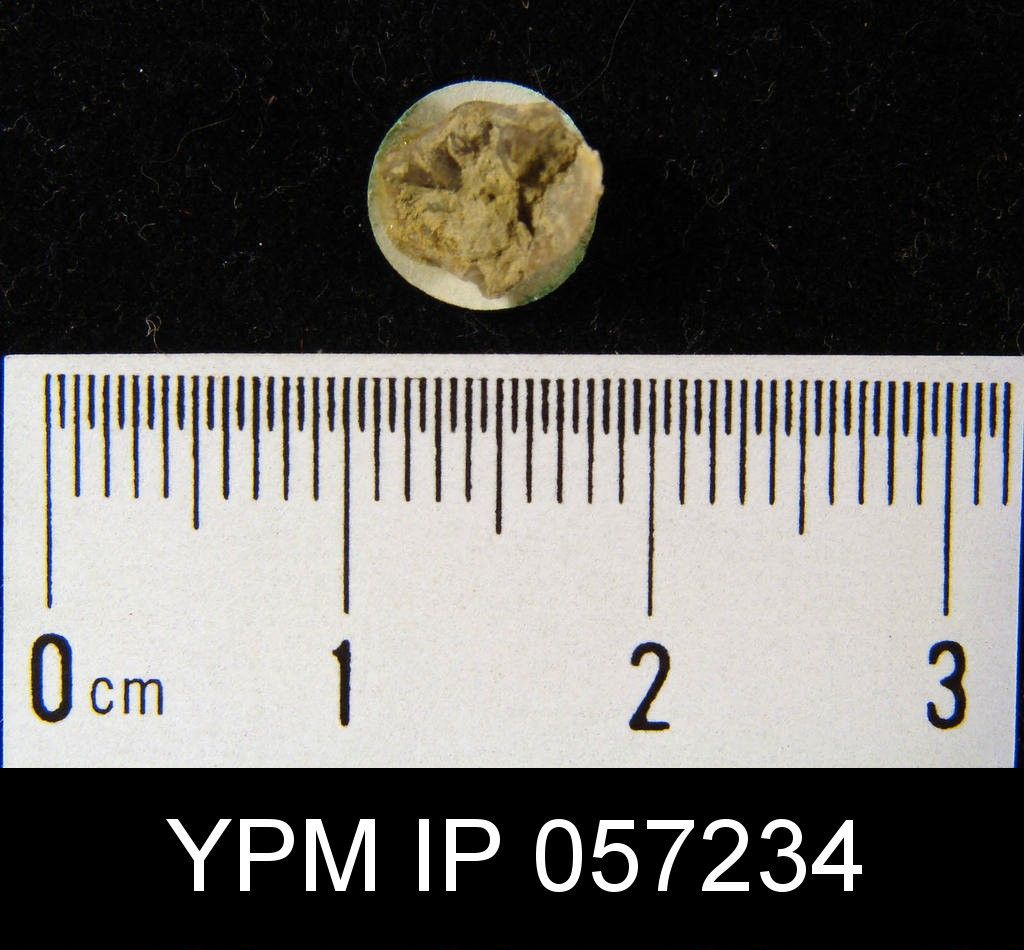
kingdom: Animalia
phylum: Brachiopoda
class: Rhynchonellata
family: Delthyrididae
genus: Delthyris
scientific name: Delthyris
